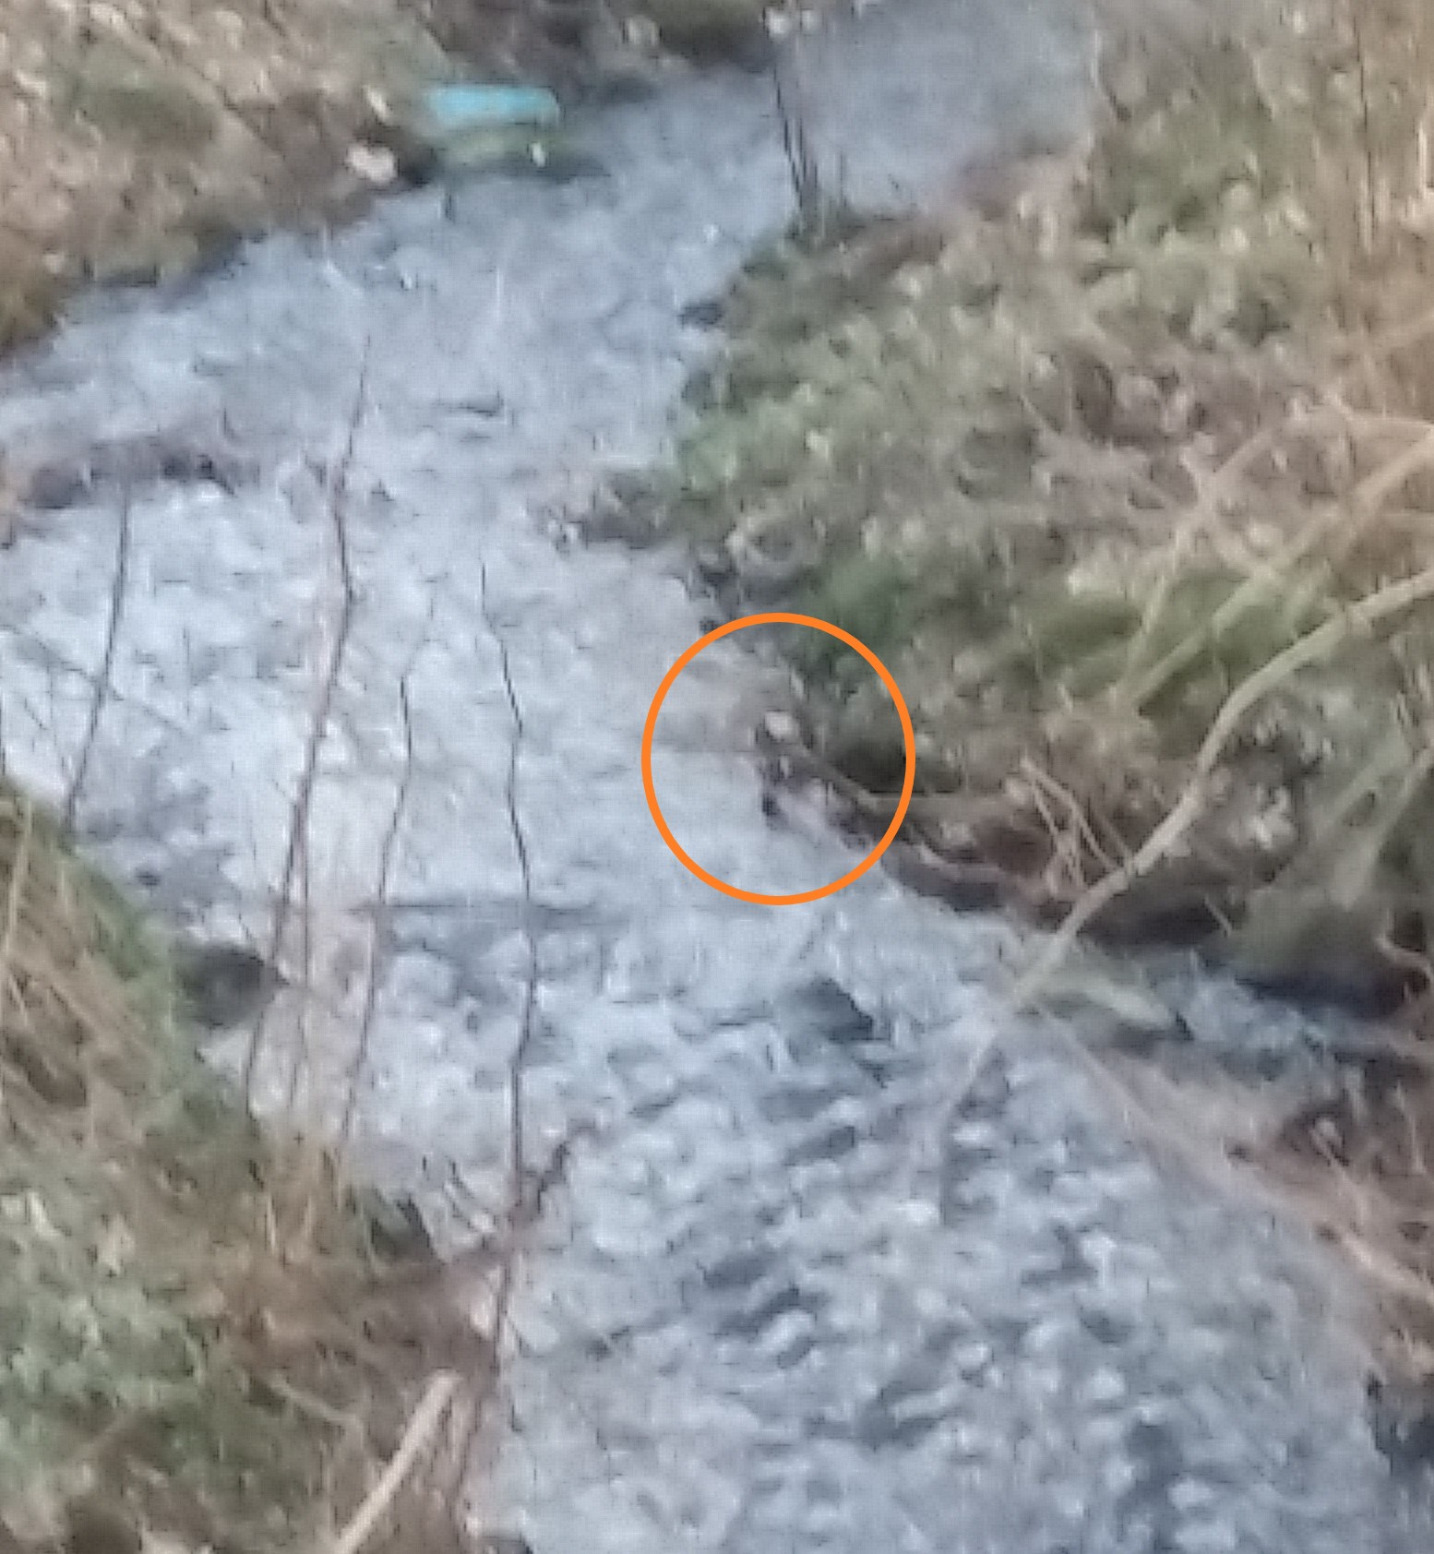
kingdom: Animalia
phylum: Chordata
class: Aves
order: Passeriformes
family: Cinclidae
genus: Cinclus
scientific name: Cinclus cinclus
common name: Vandstær
